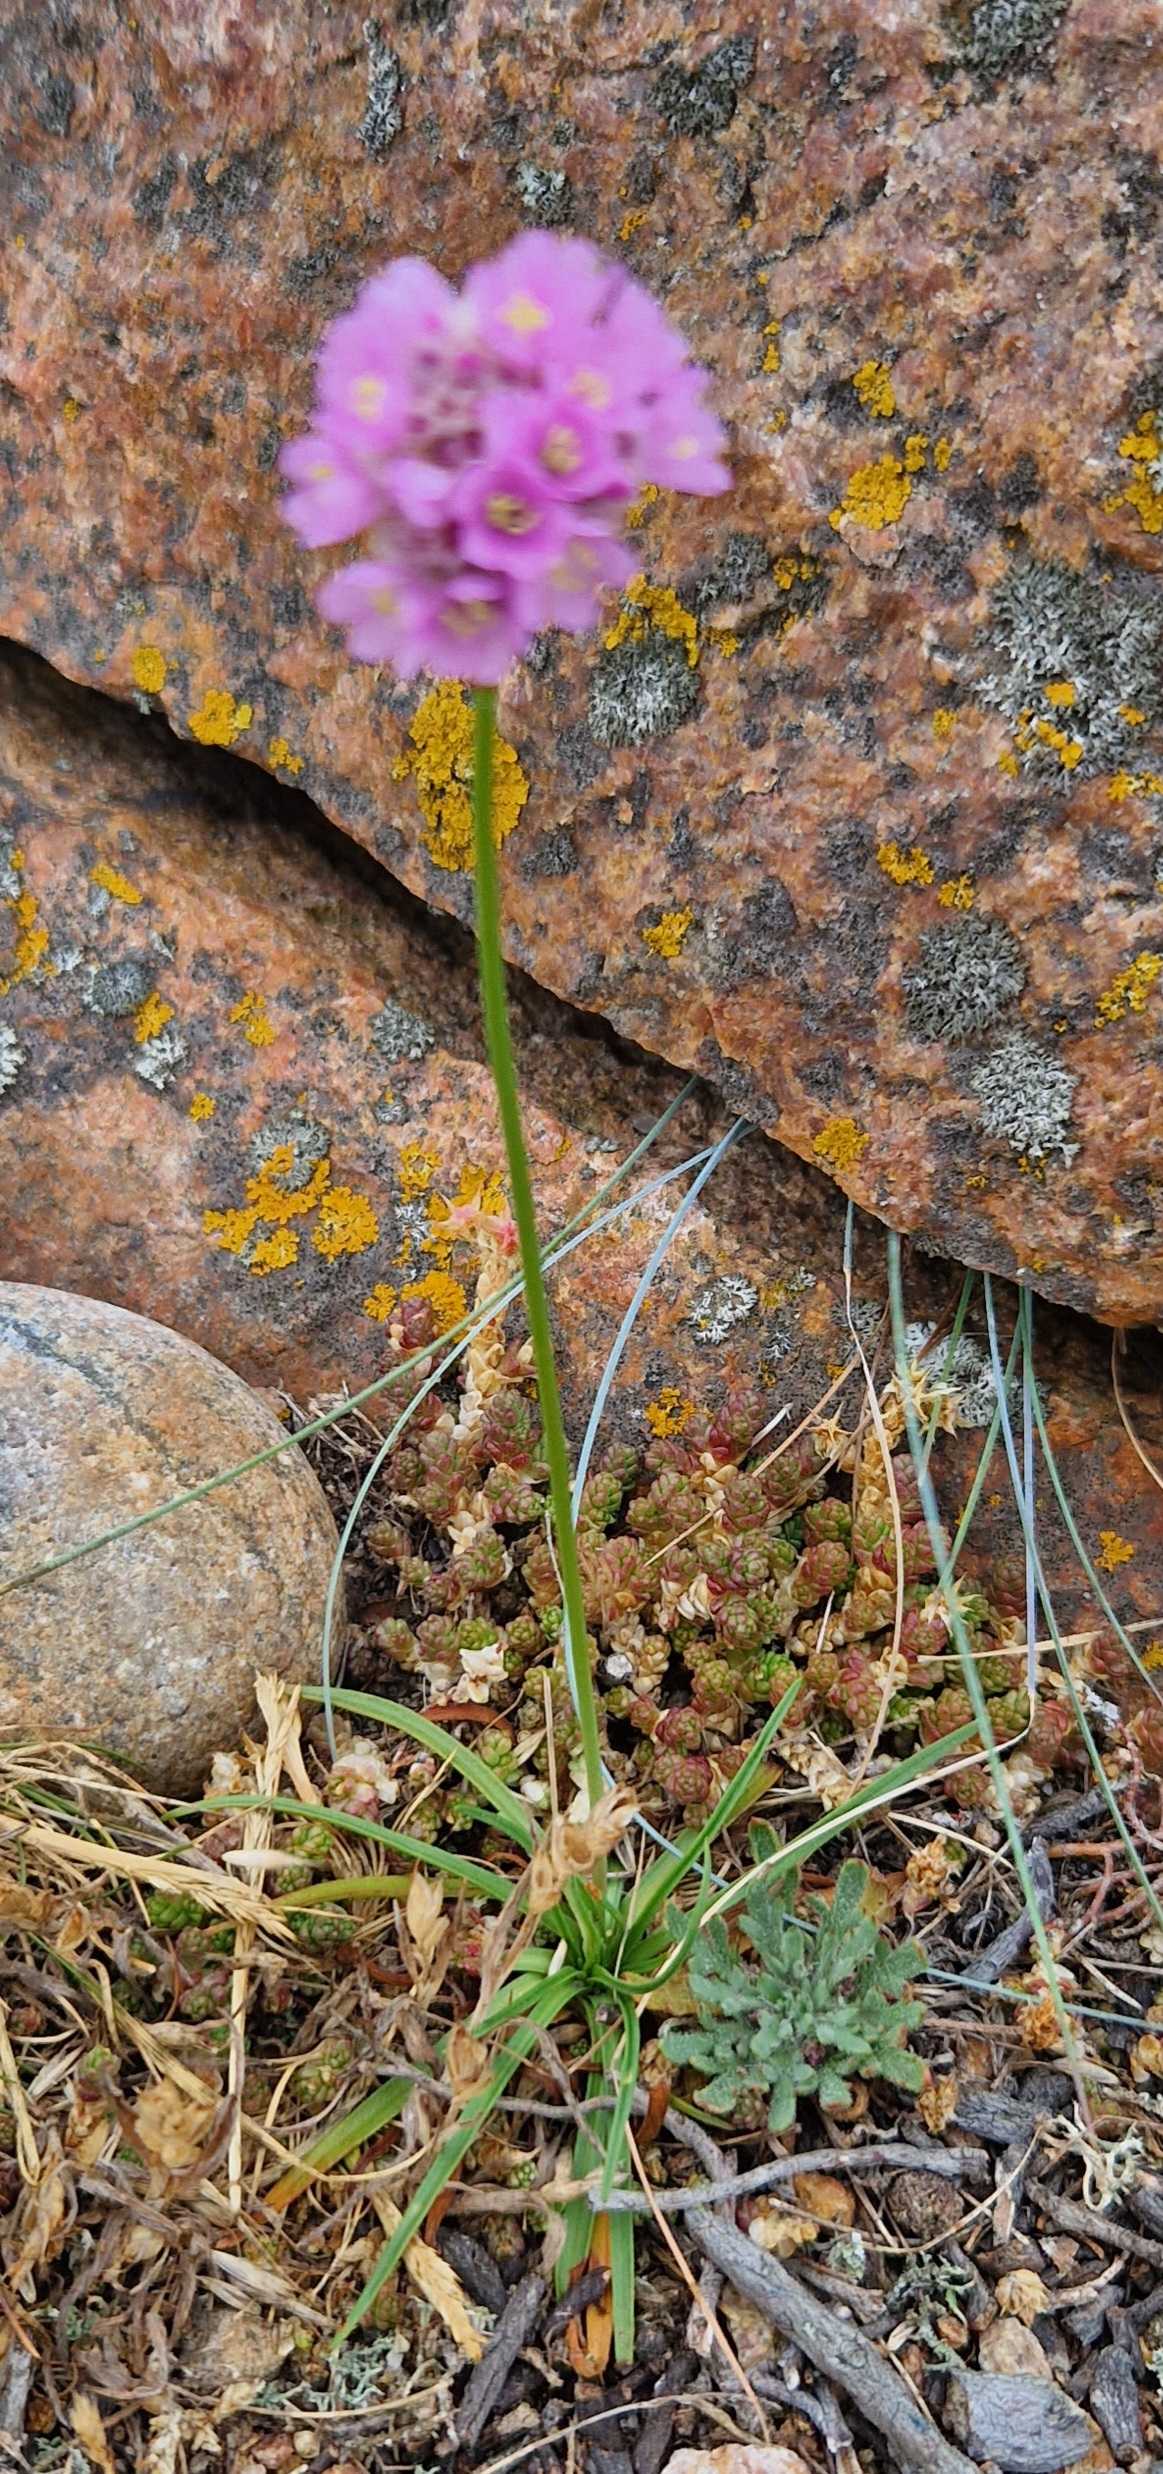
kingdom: Plantae
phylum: Tracheophyta
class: Magnoliopsida
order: Caryophyllales
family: Plumbaginaceae
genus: Armeria
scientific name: Armeria maritima
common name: Engelskgræs
